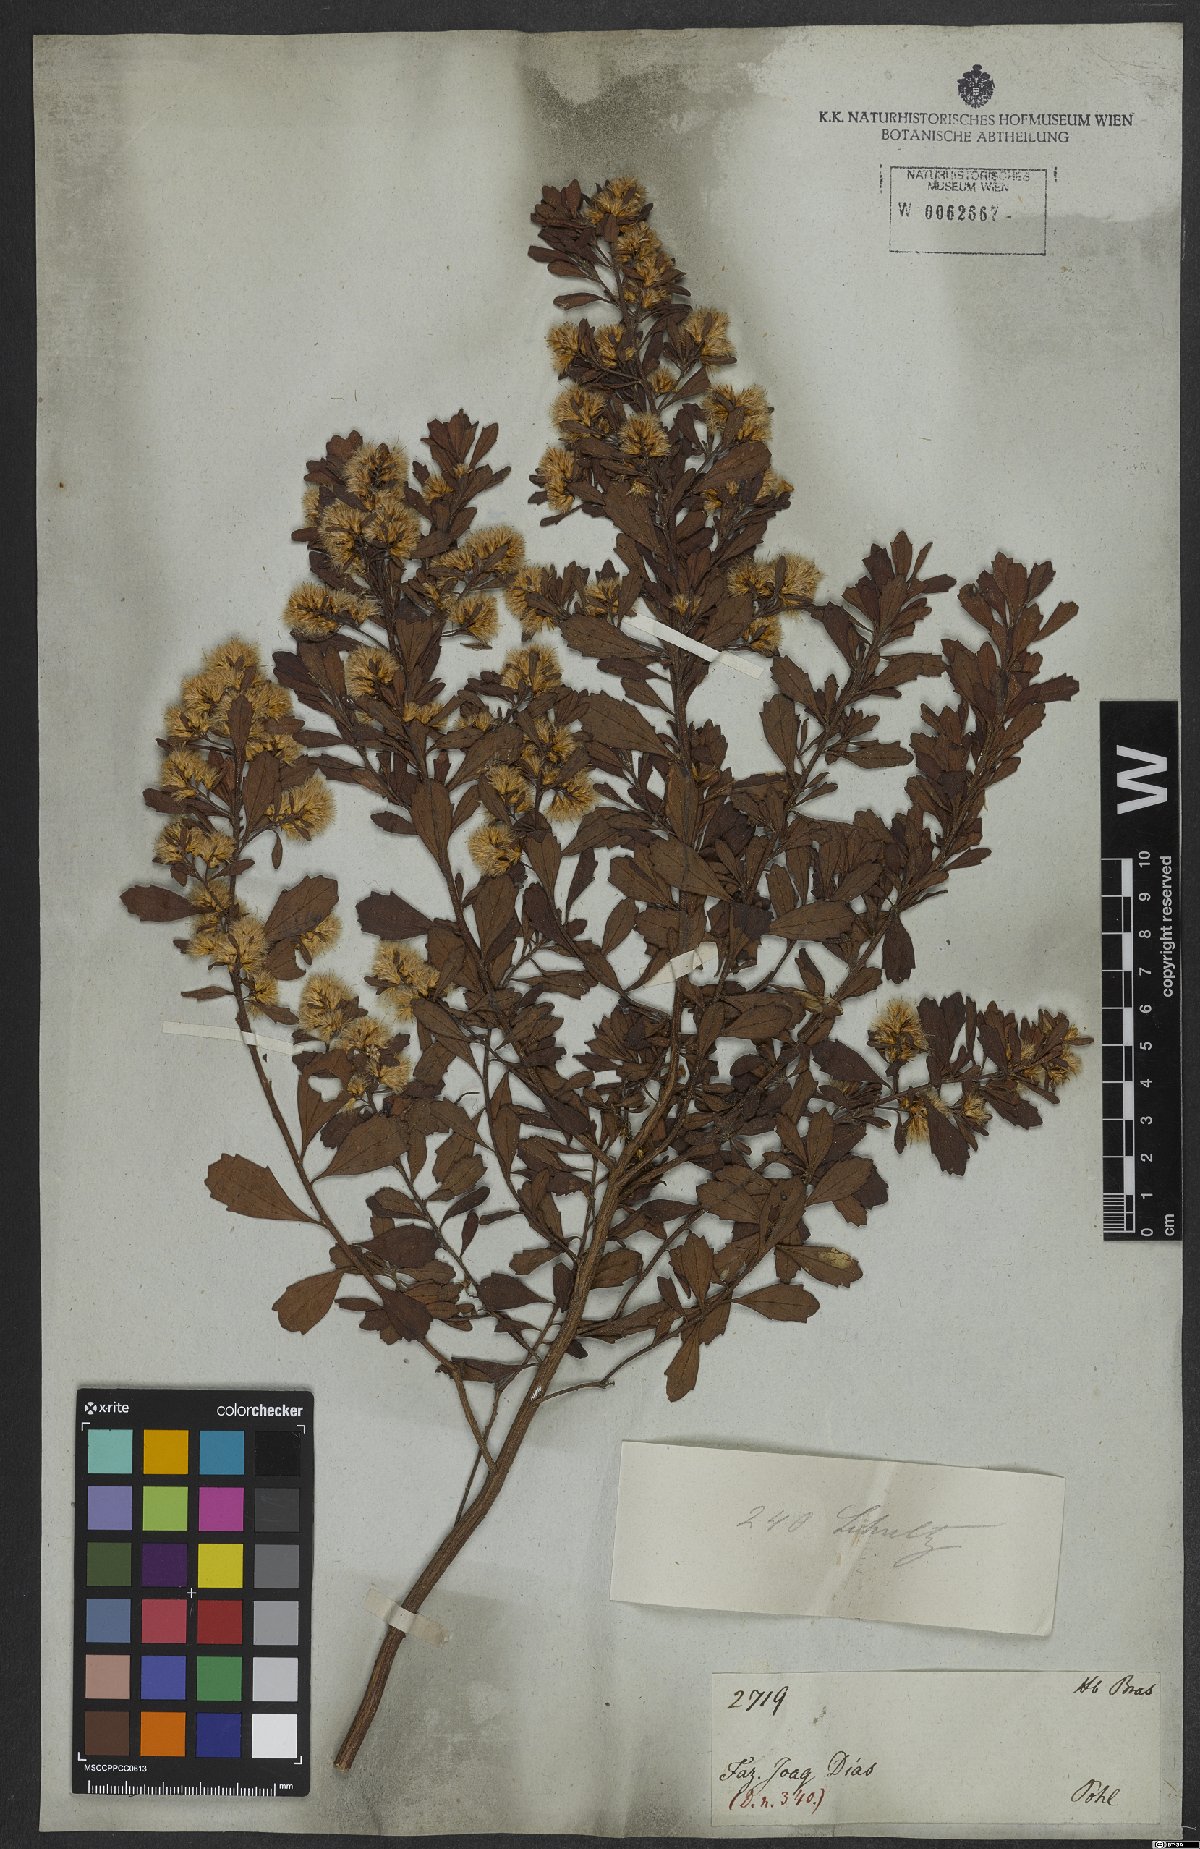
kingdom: Plantae
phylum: Tracheophyta
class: Magnoliopsida
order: Asterales
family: Asteraceae
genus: Baccharis
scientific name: Baccharis pauciflosculosa
